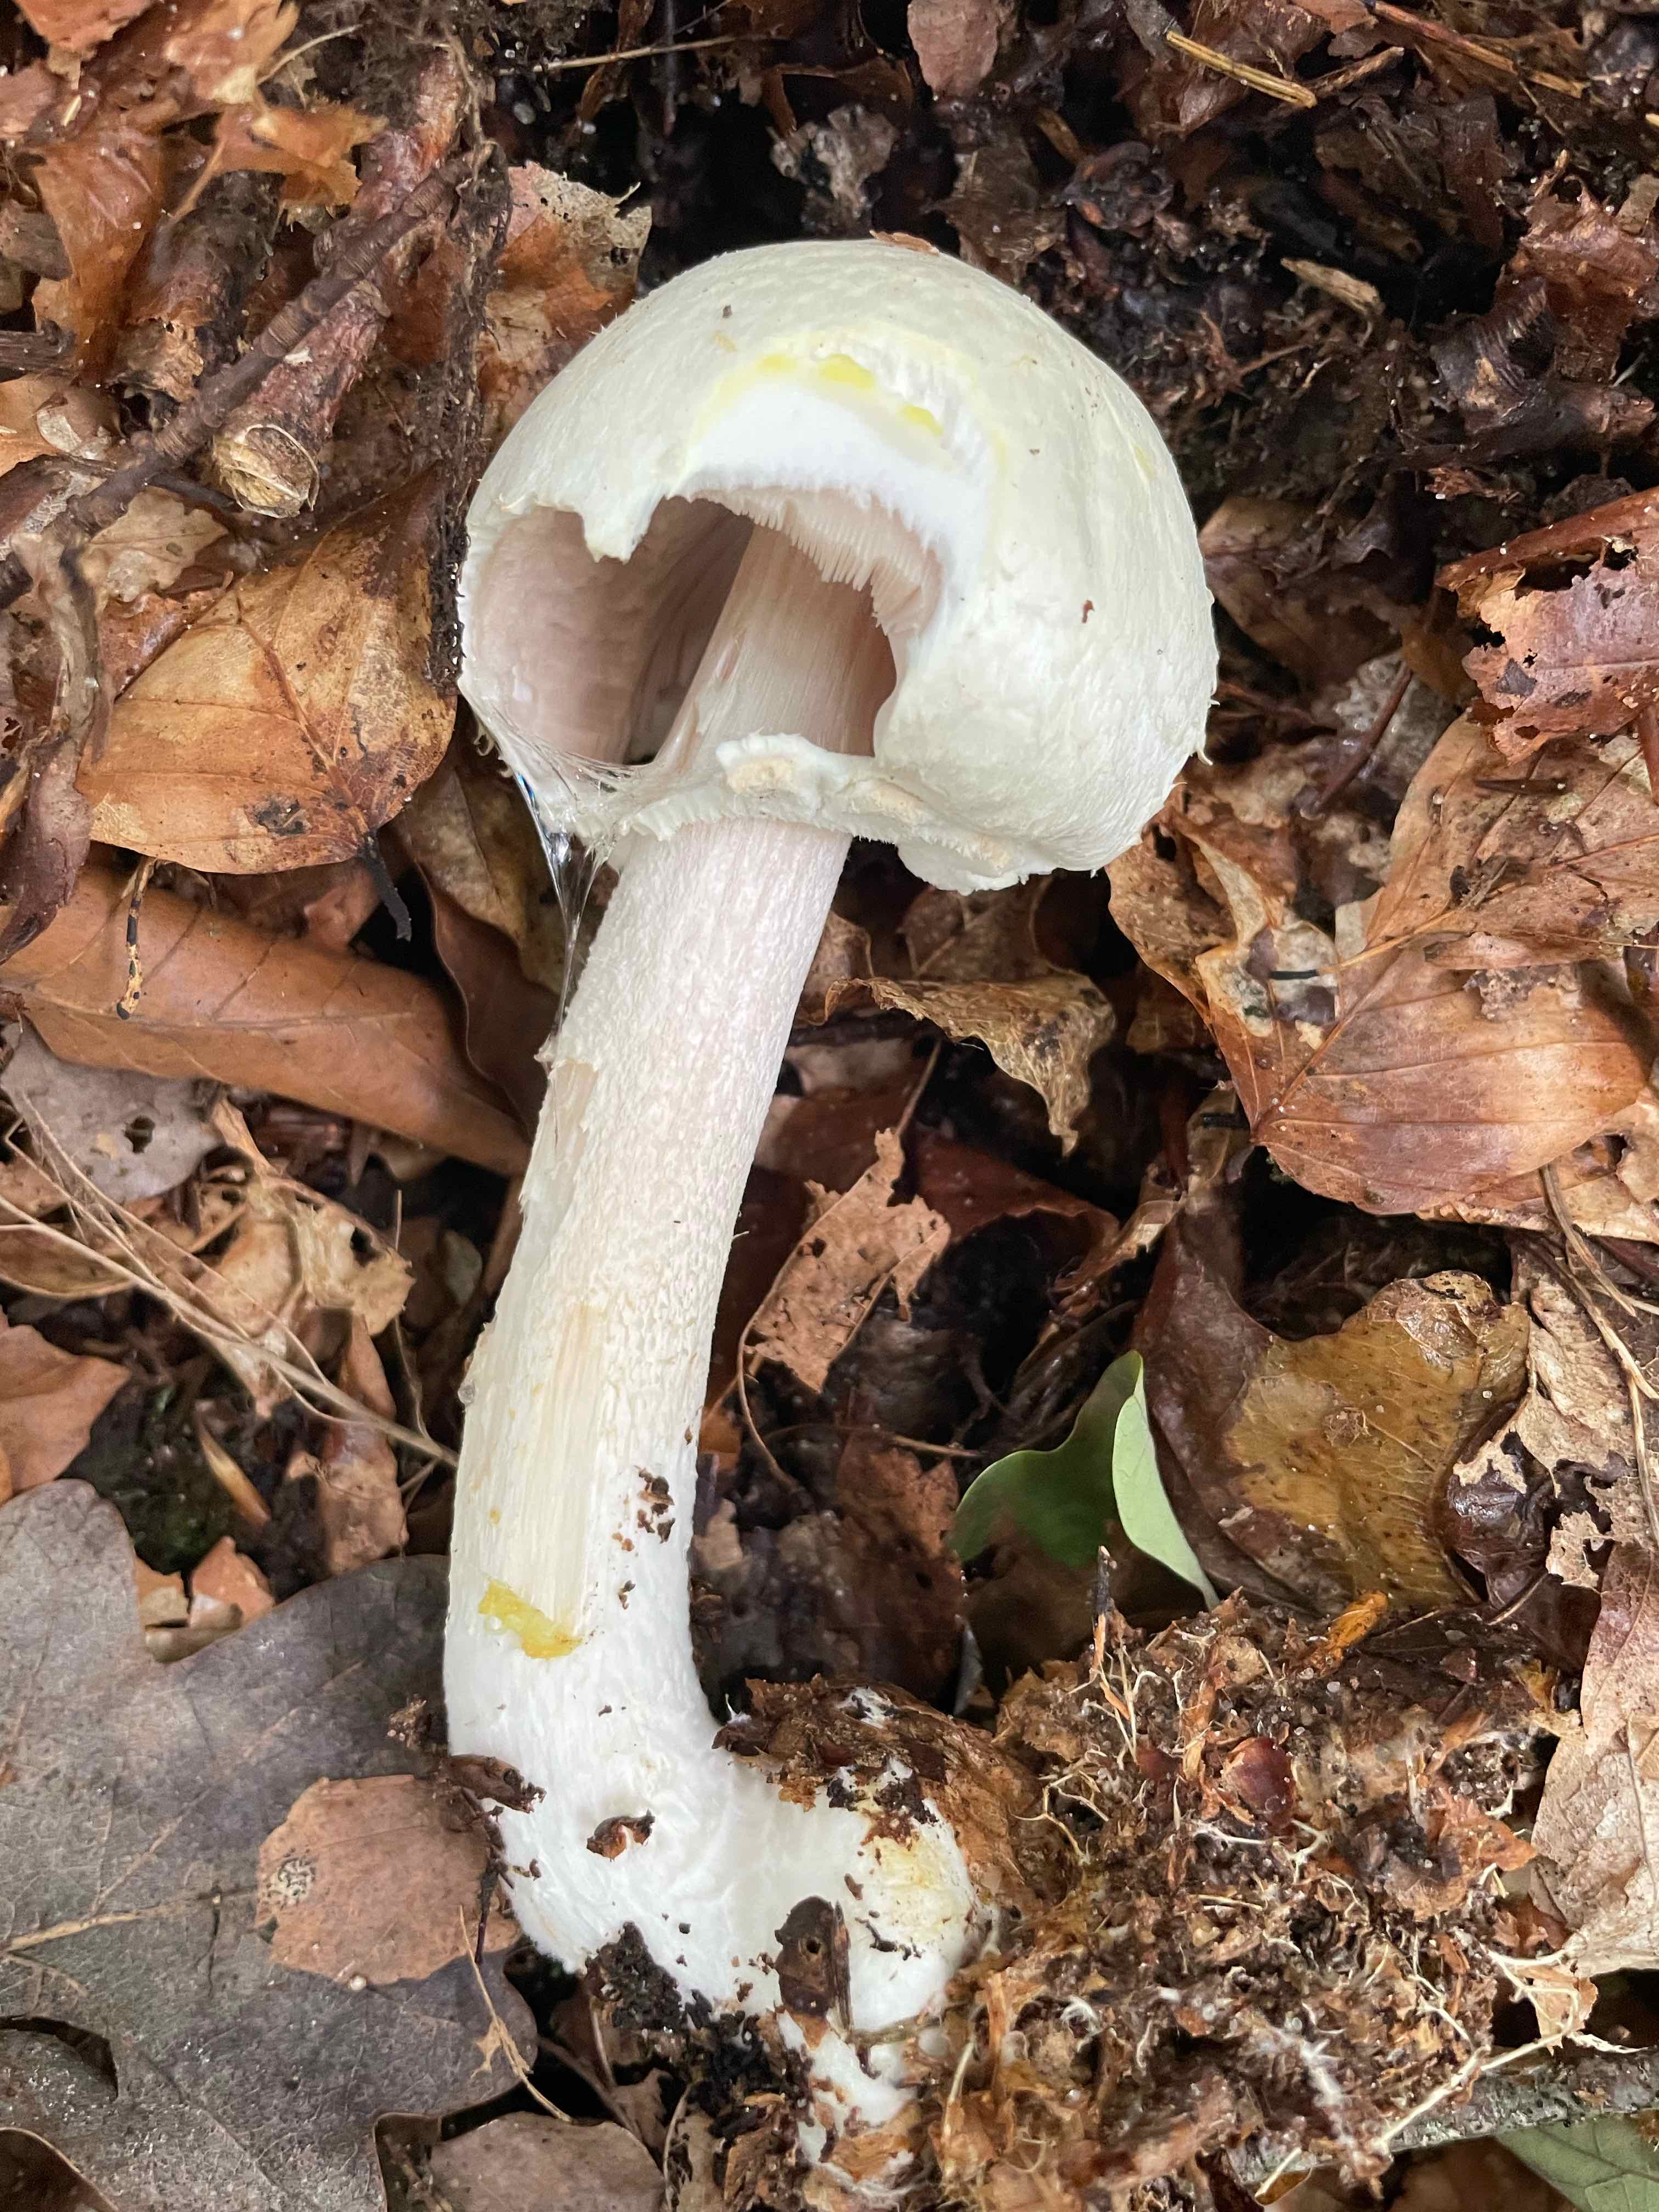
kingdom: Fungi
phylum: Basidiomycota
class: Agaricomycetes
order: Agaricales
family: Agaricaceae
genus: Agaricus
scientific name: Agaricus sylvicola
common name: skiveknoldet champignon
